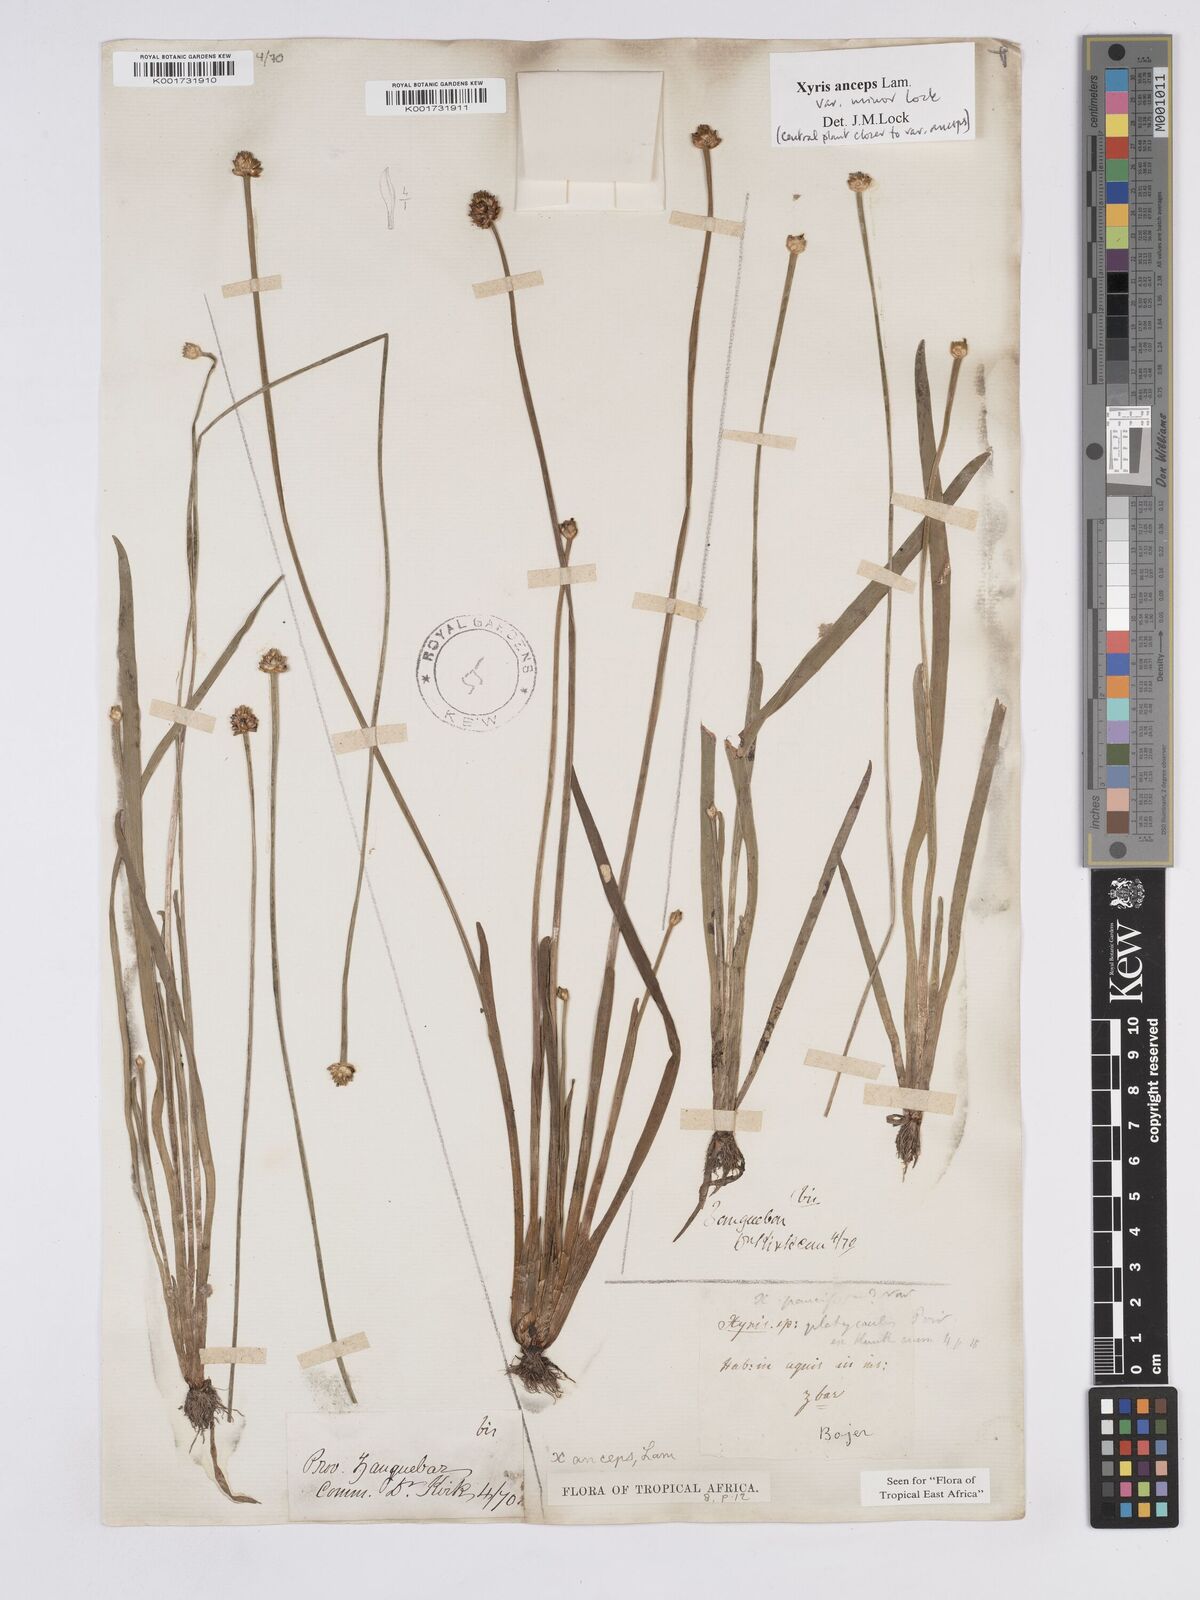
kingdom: Plantae
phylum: Tracheophyta
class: Liliopsida
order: Poales
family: Xyridaceae
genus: Xyris
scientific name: Xyris anceps
